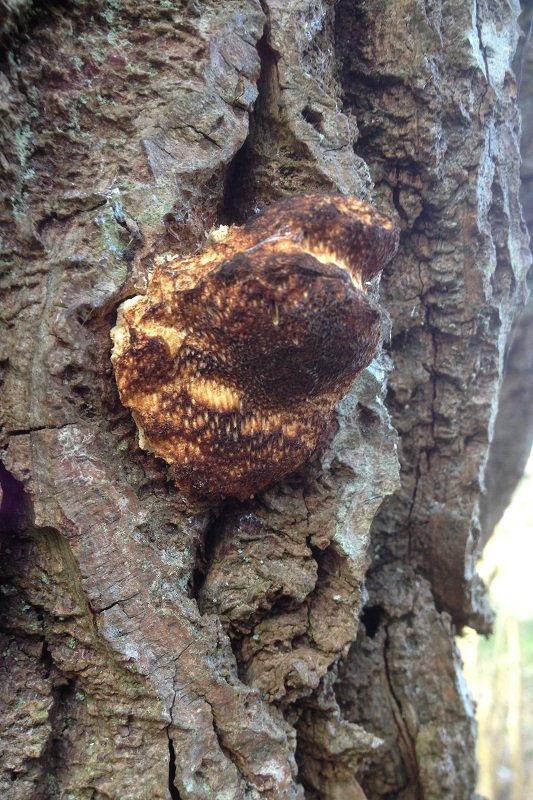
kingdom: Fungi
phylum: Basidiomycota
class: Agaricomycetes
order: Polyporales
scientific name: Polyporales
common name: poresvampordenen
